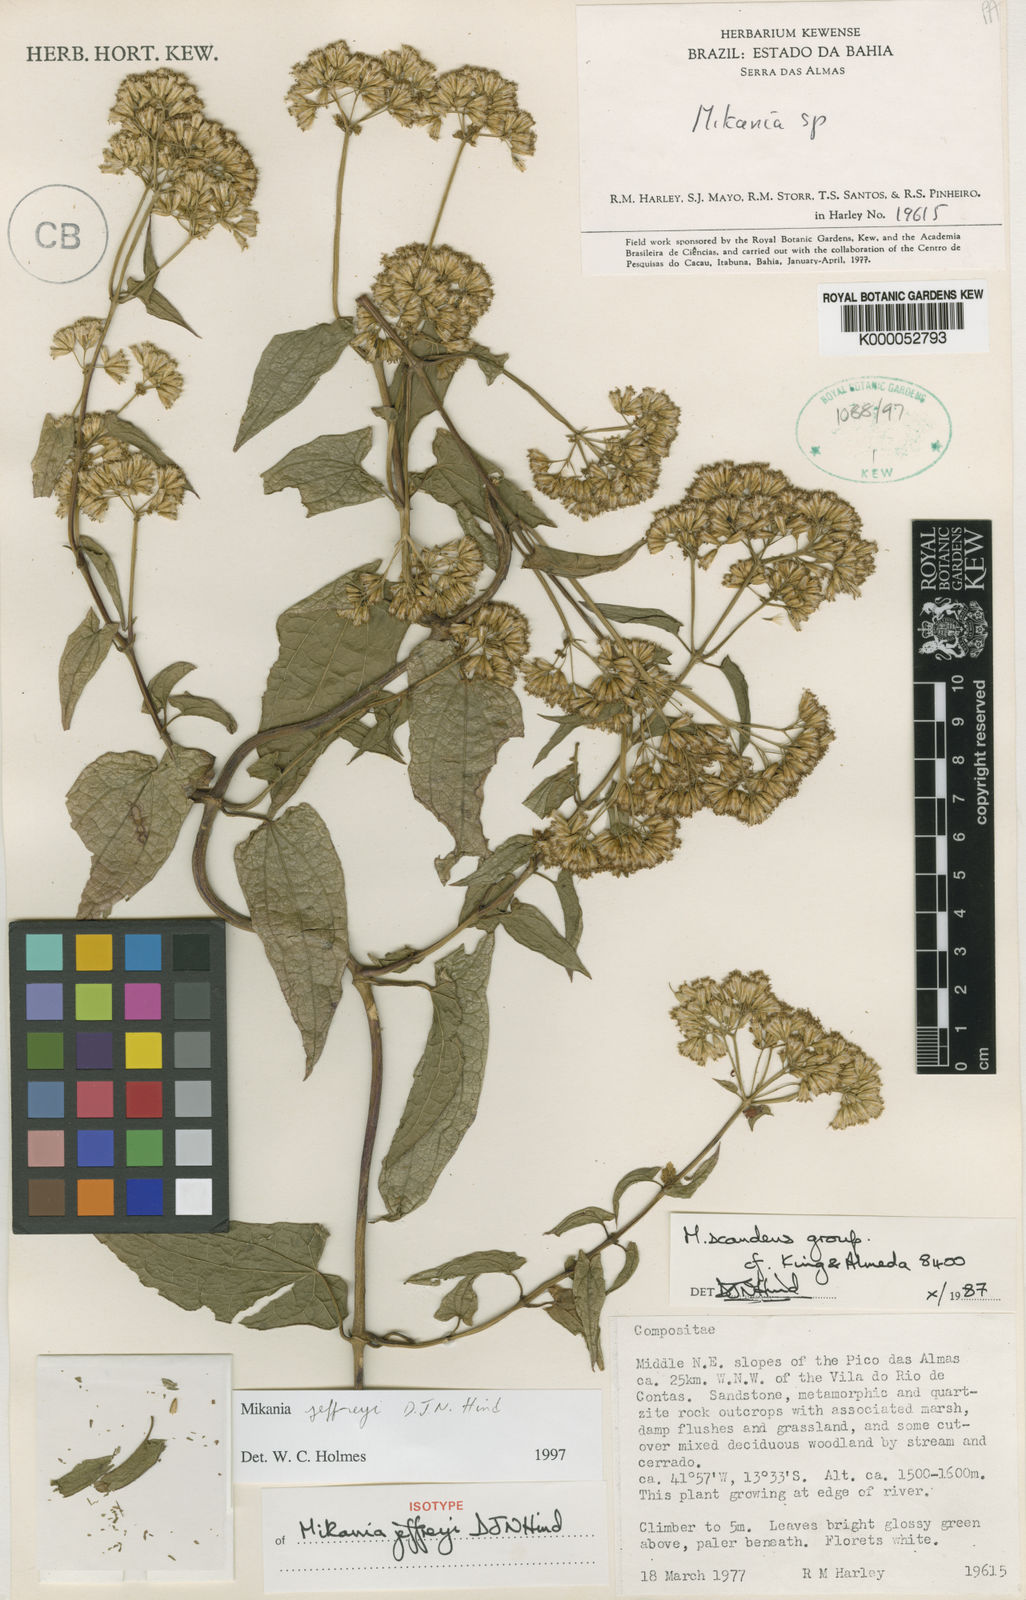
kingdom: Plantae
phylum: Tracheophyta
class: Magnoliopsida
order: Asterales
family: Asteraceae
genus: Mikania
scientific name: Mikania jeffreyi
